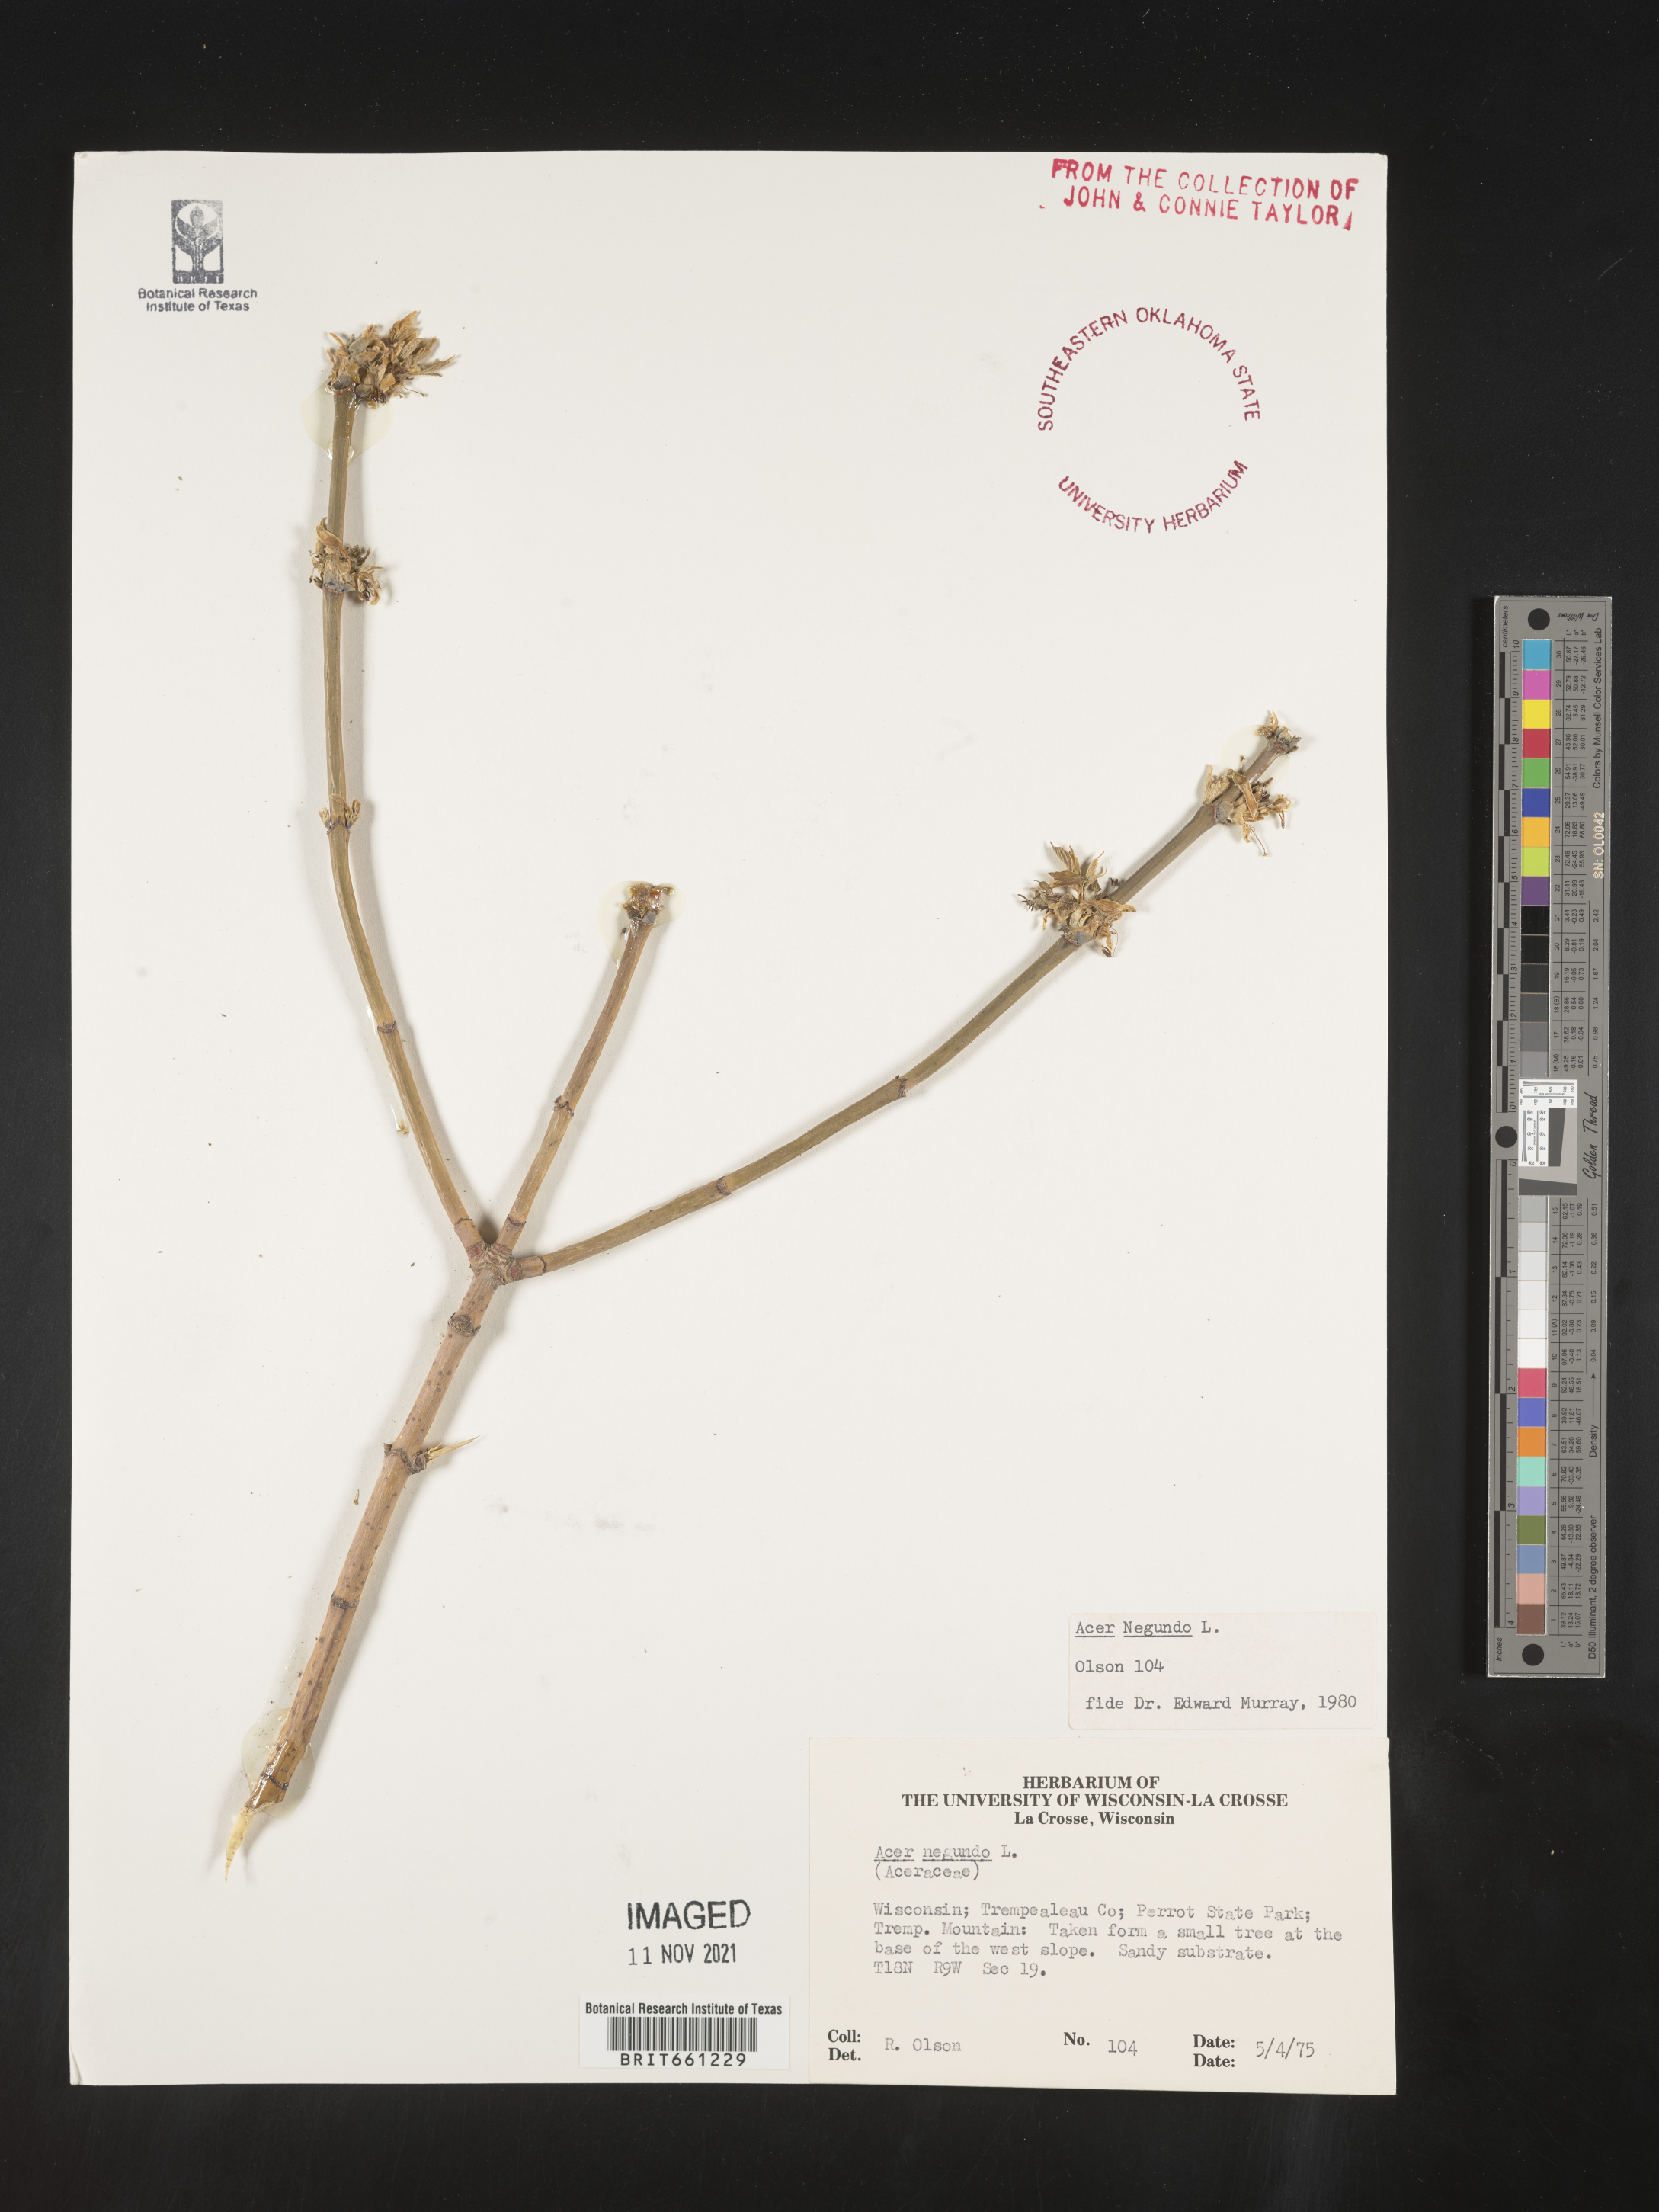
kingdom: Plantae
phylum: Tracheophyta
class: Magnoliopsida
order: Sapindales
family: Sapindaceae
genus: Acer
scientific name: Acer negundo
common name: Ashleaf maple
